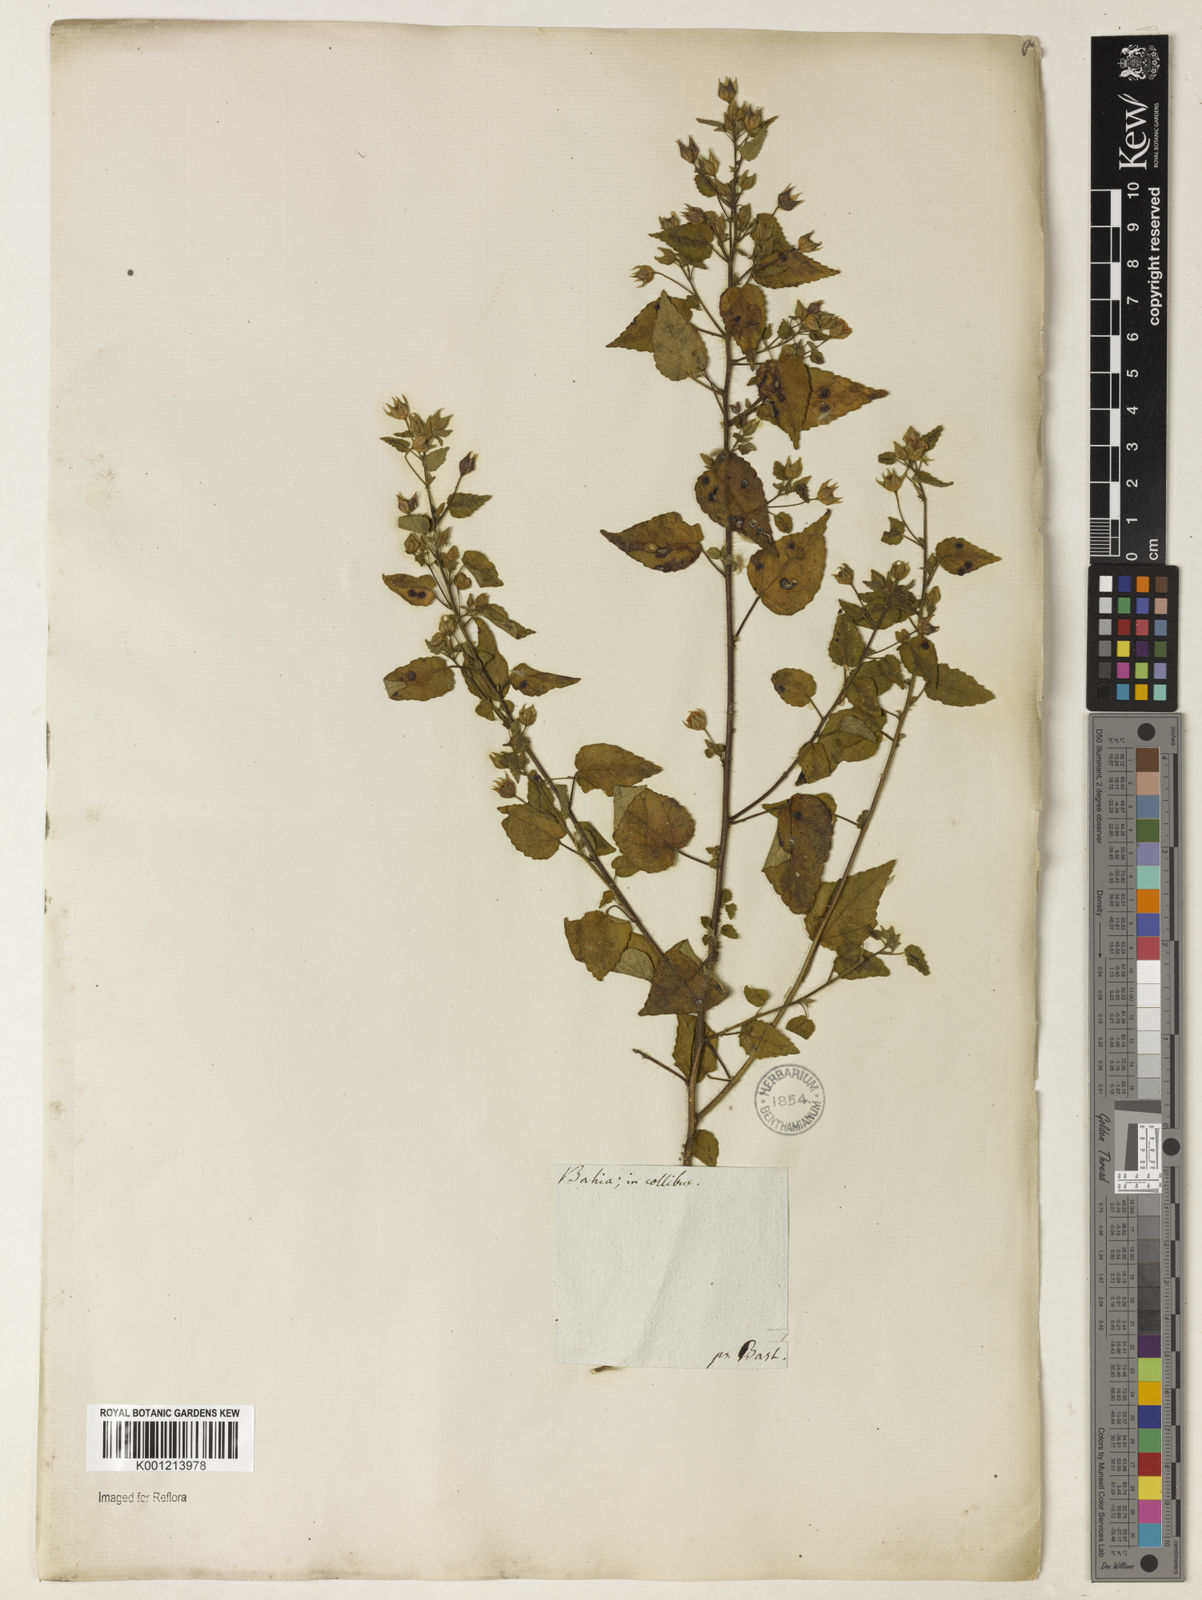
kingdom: Plantae
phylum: Tracheophyta
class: Magnoliopsida
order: Malvales
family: Malvaceae
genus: Sida
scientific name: Sida aurantiaca
